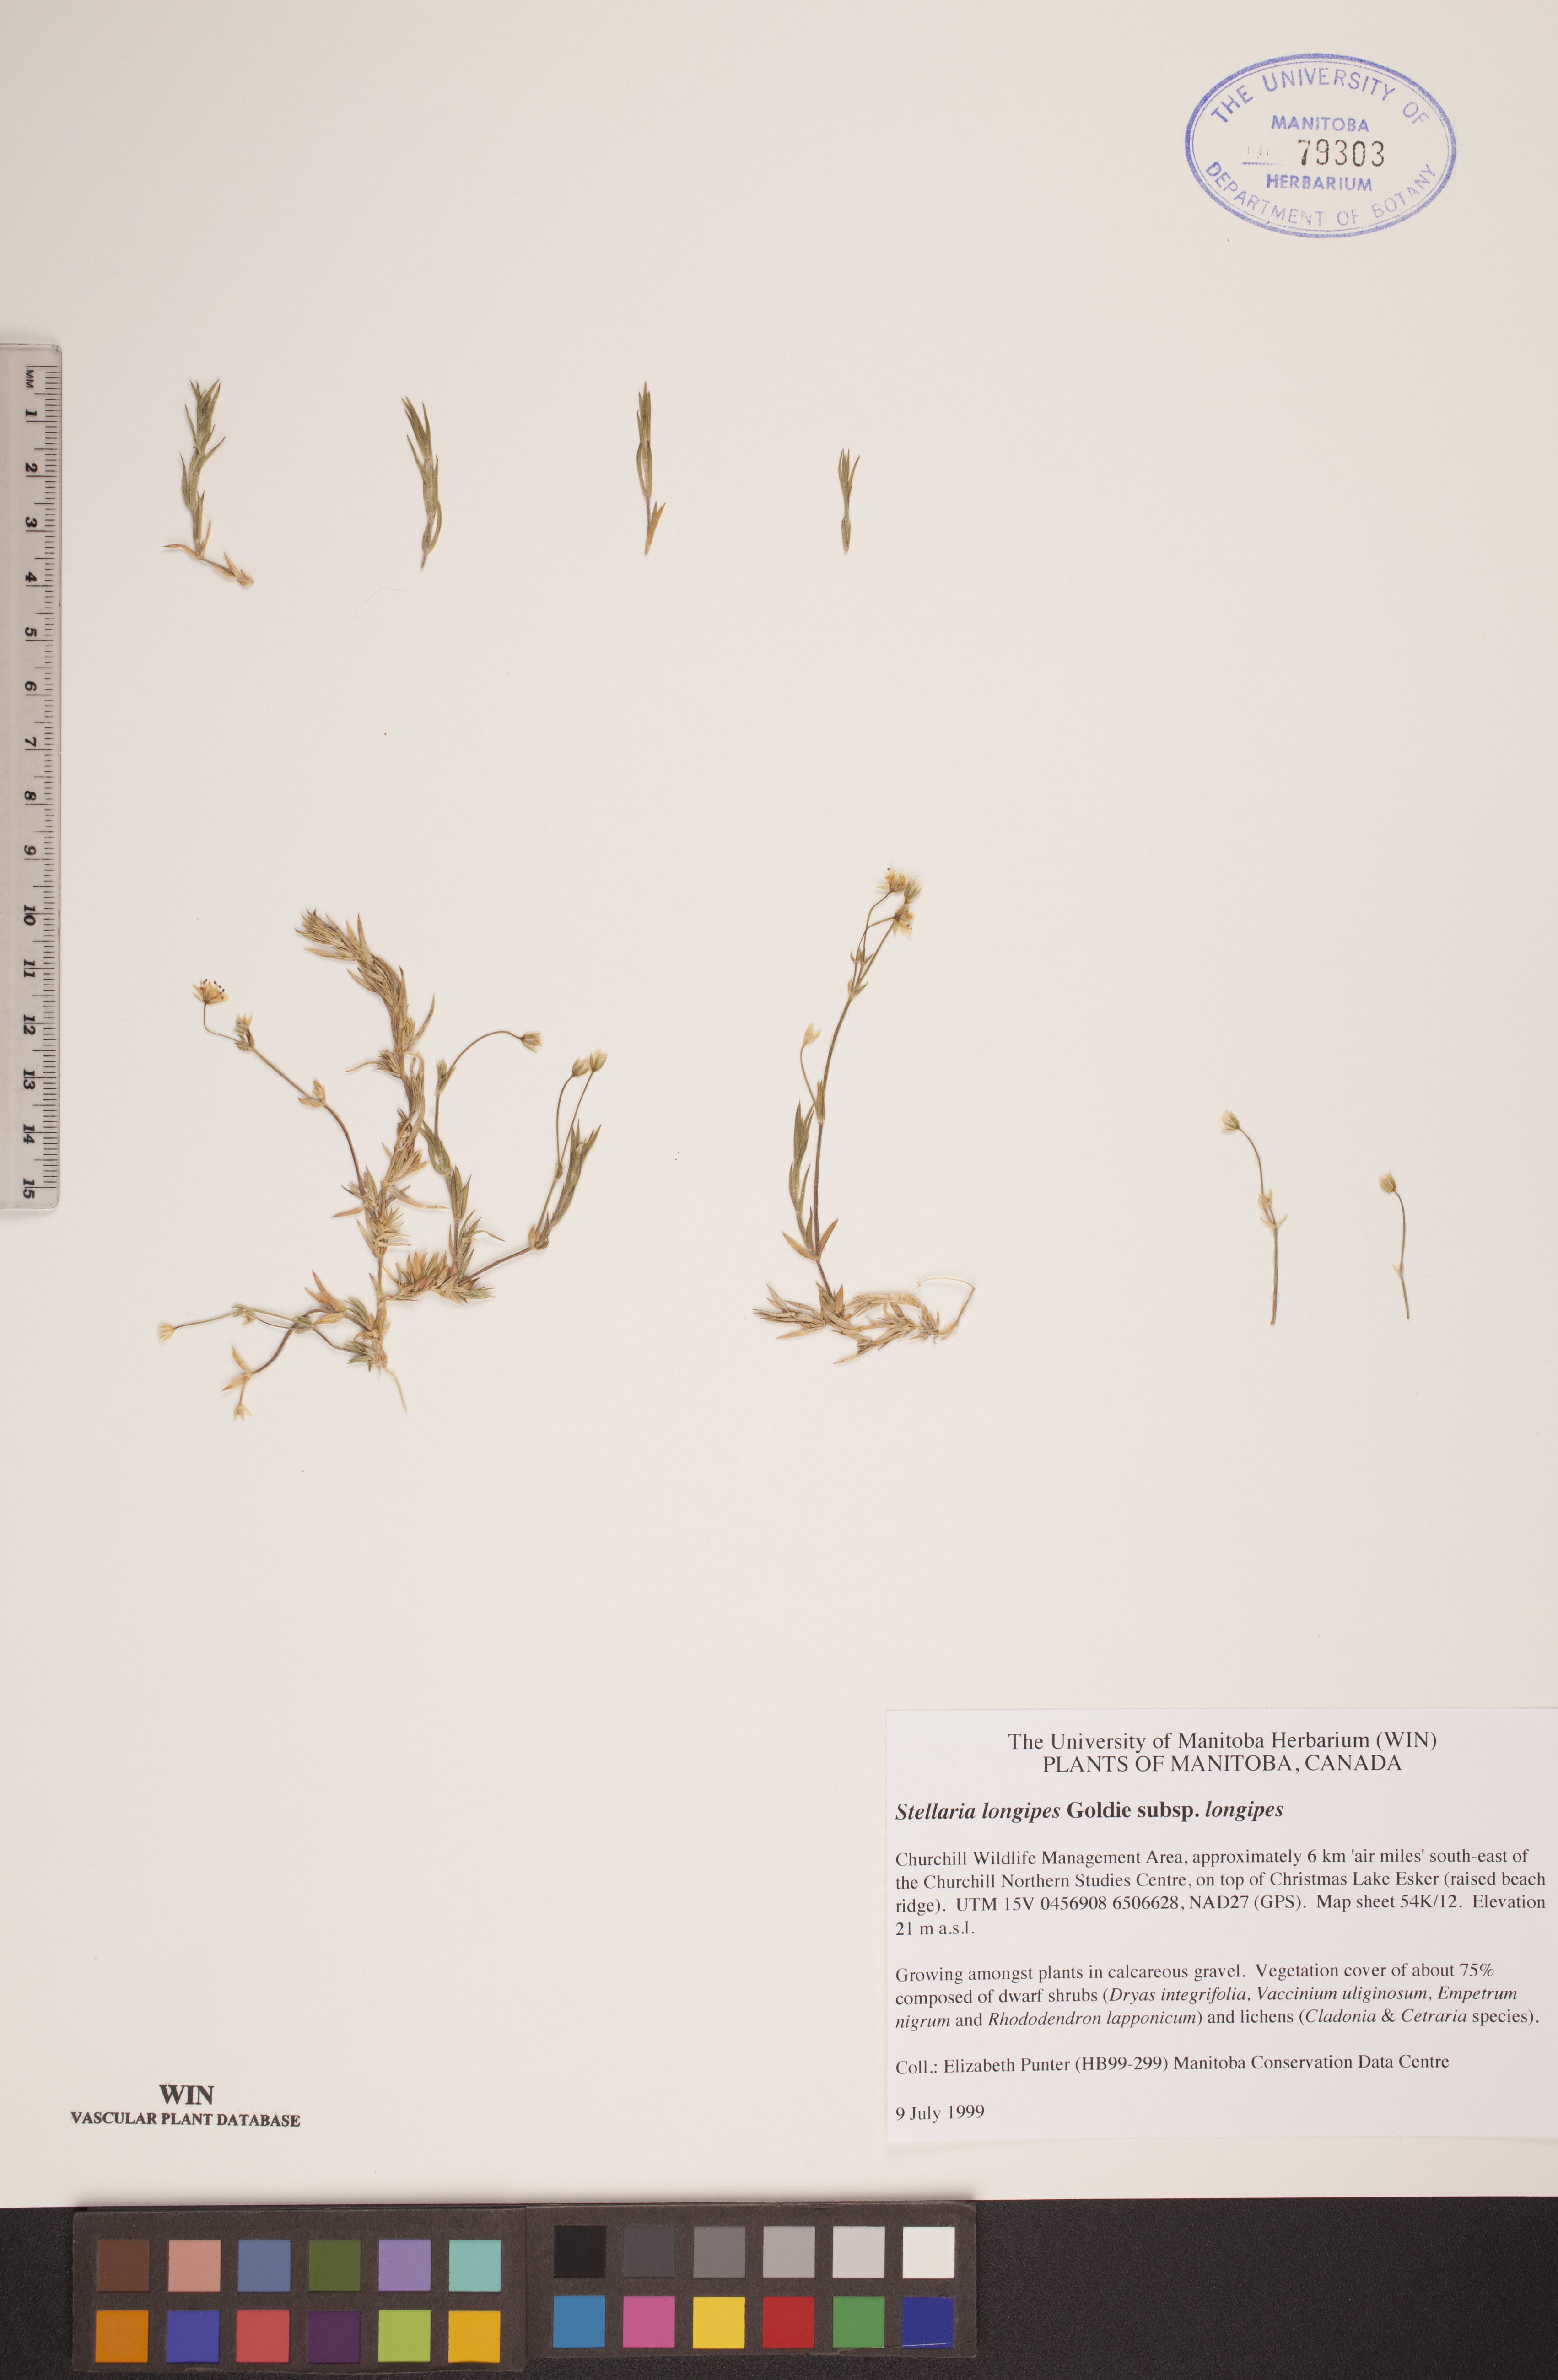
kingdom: Plantae
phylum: Tracheophyta
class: Magnoliopsida
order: Caryophyllales
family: Caryophyllaceae
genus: Stellaria
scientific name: Stellaria longipes
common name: Goldie's starwort
